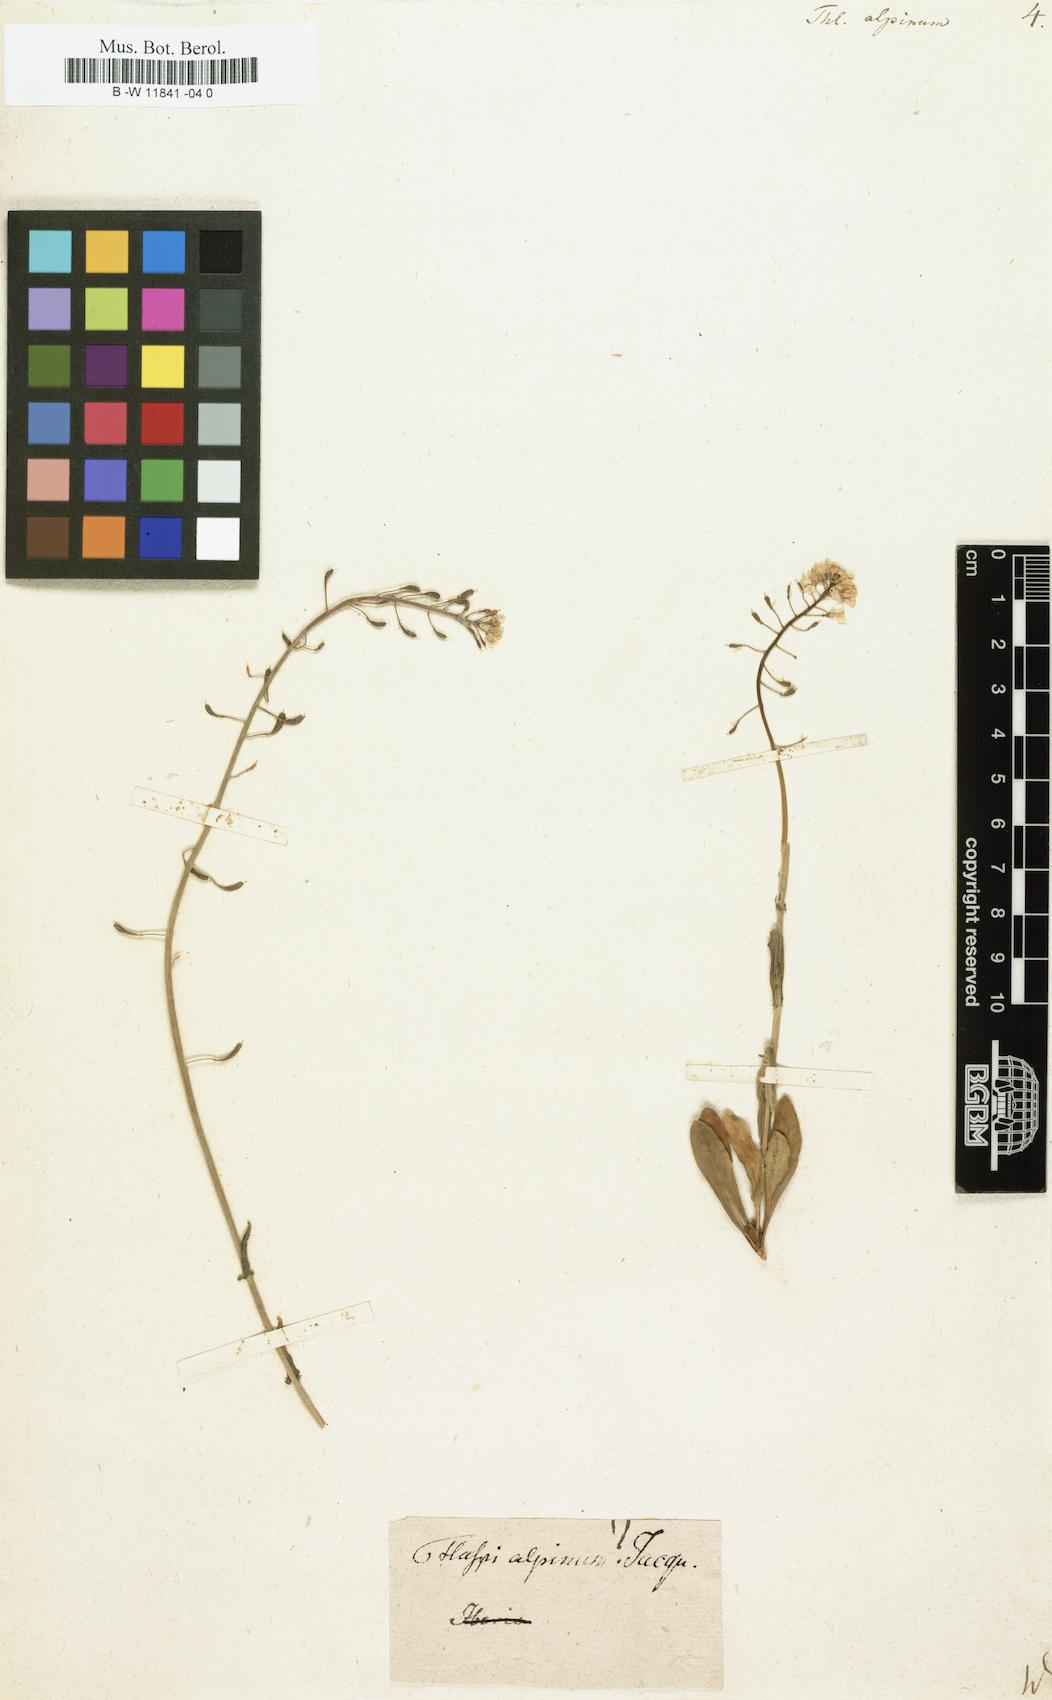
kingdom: Plantae
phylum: Tracheophyta
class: Magnoliopsida
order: Brassicales
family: Brassicaceae
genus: Noccaea
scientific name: Noccaea
